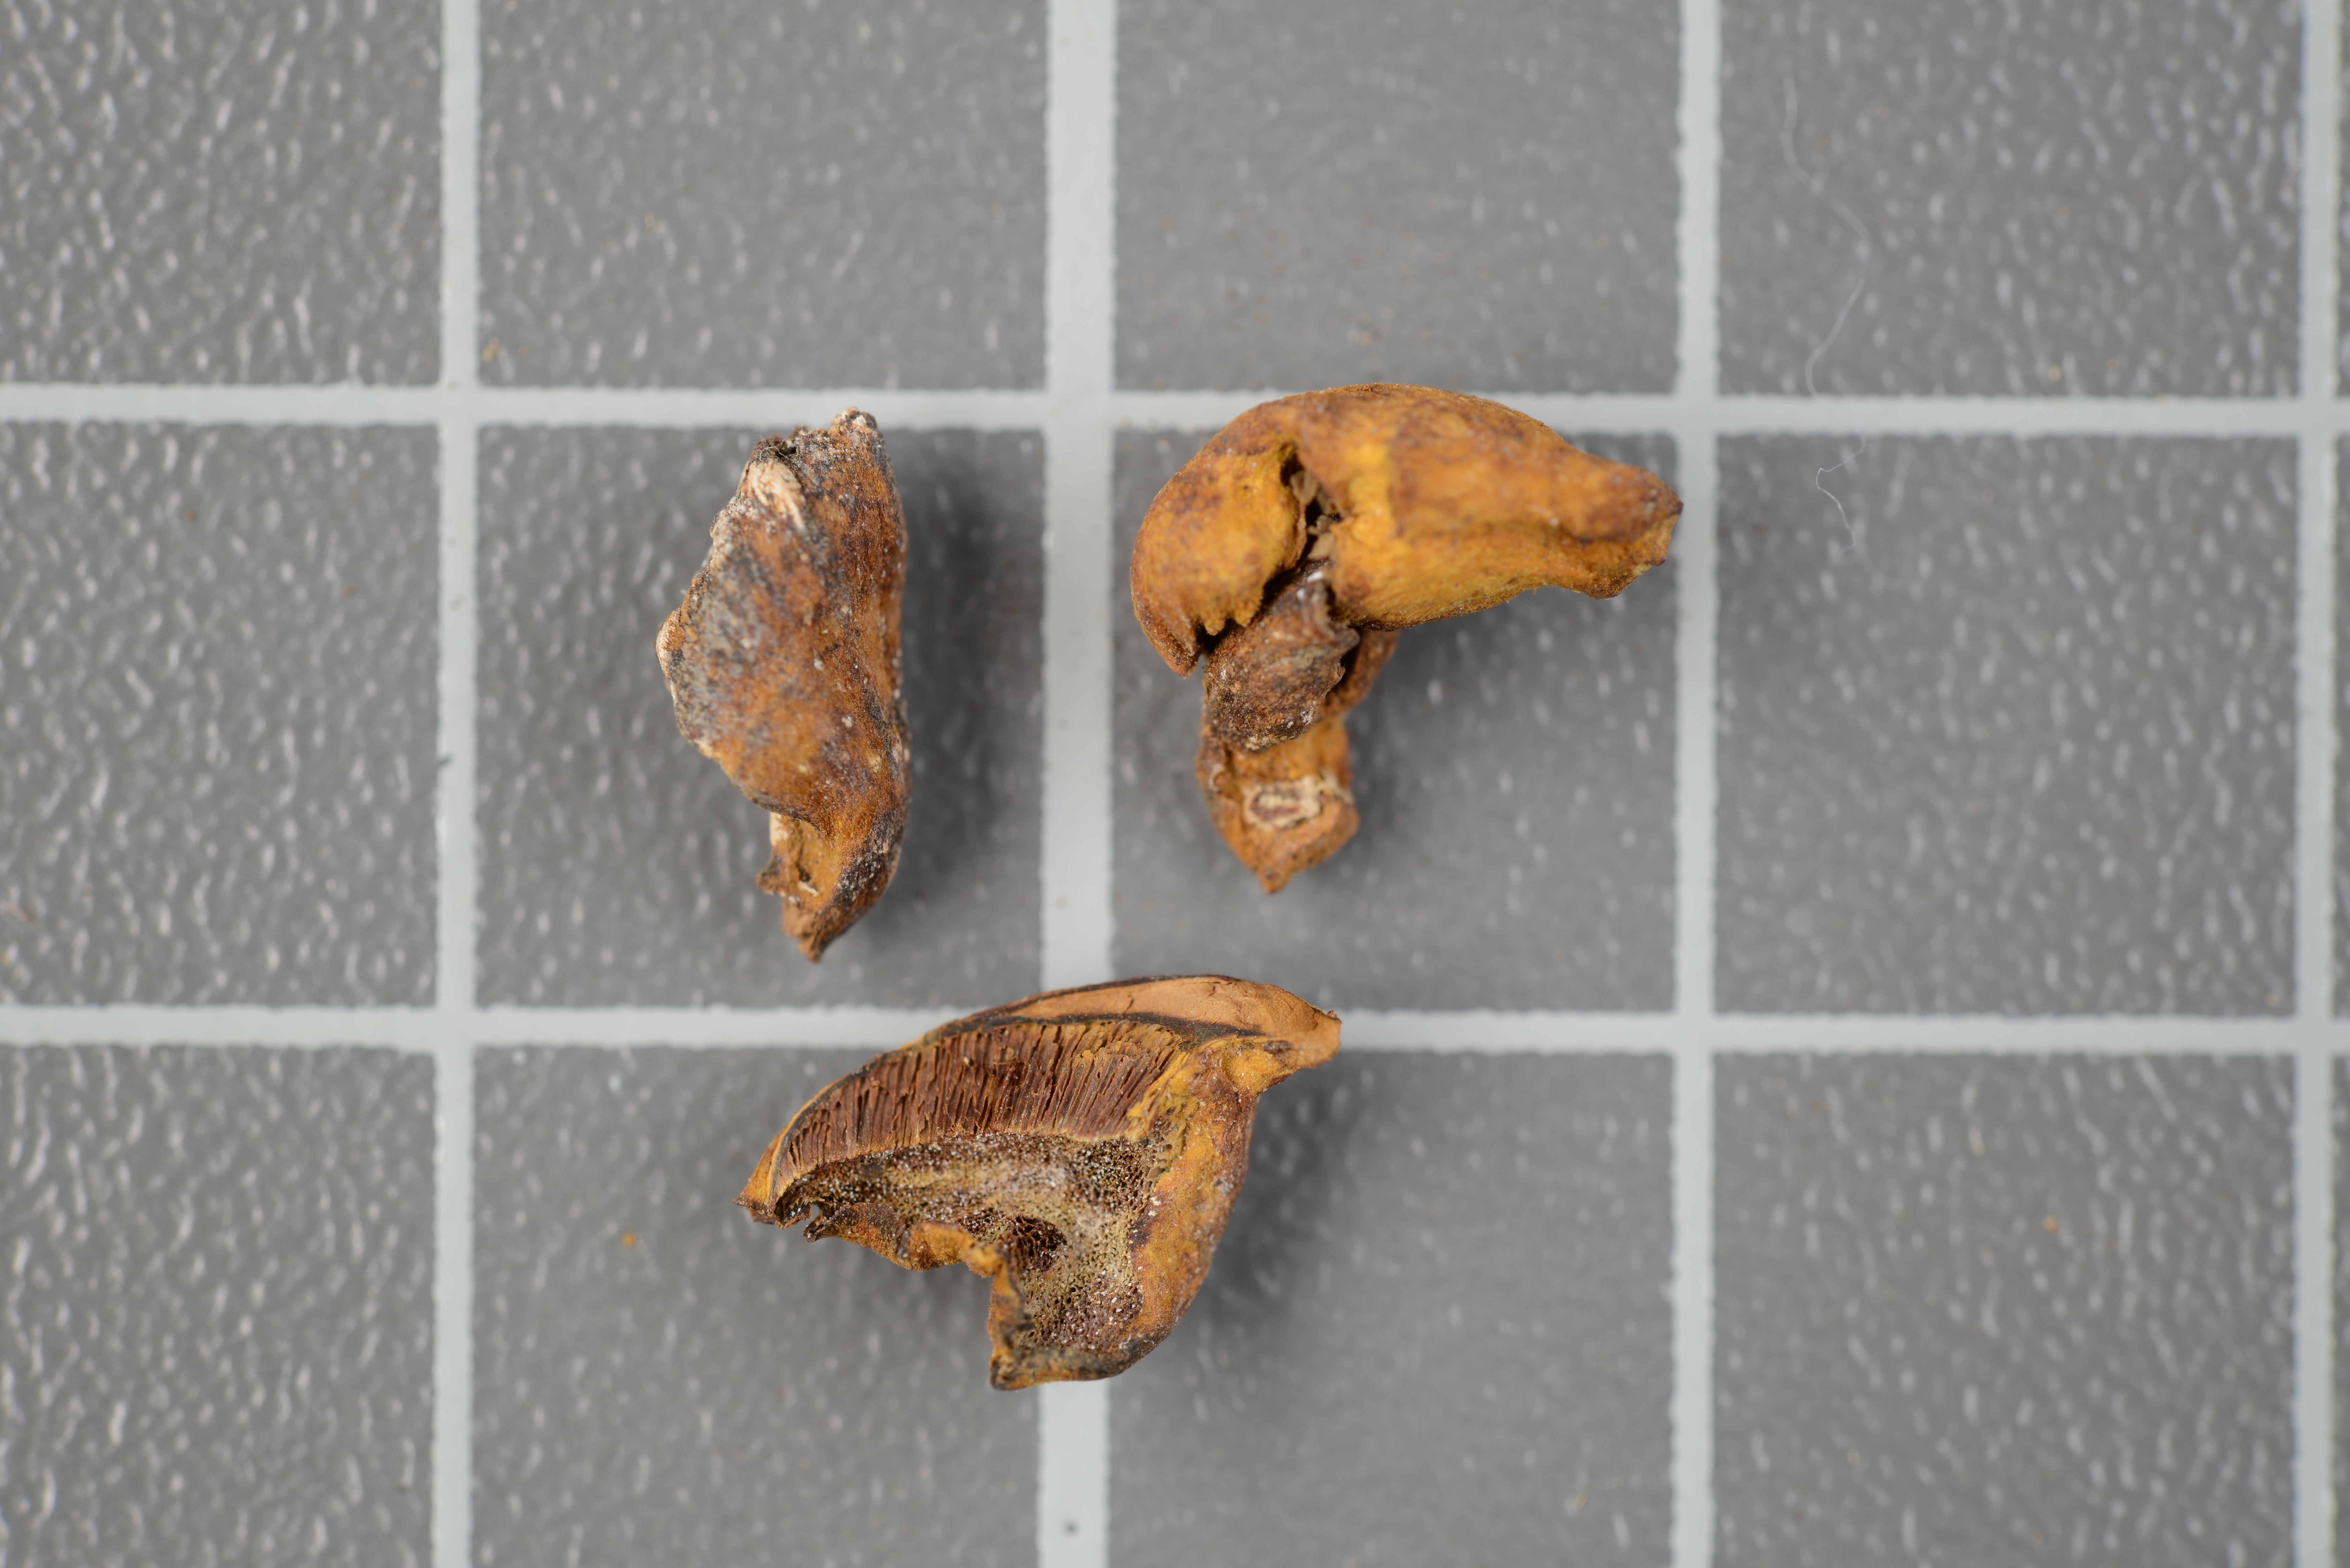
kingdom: Fungi
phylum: Basidiomycota
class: Agaricomycetes
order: Hymenochaetales
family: Hymenochaetaceae
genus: Inonotus
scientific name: Inonotus austropusillus
